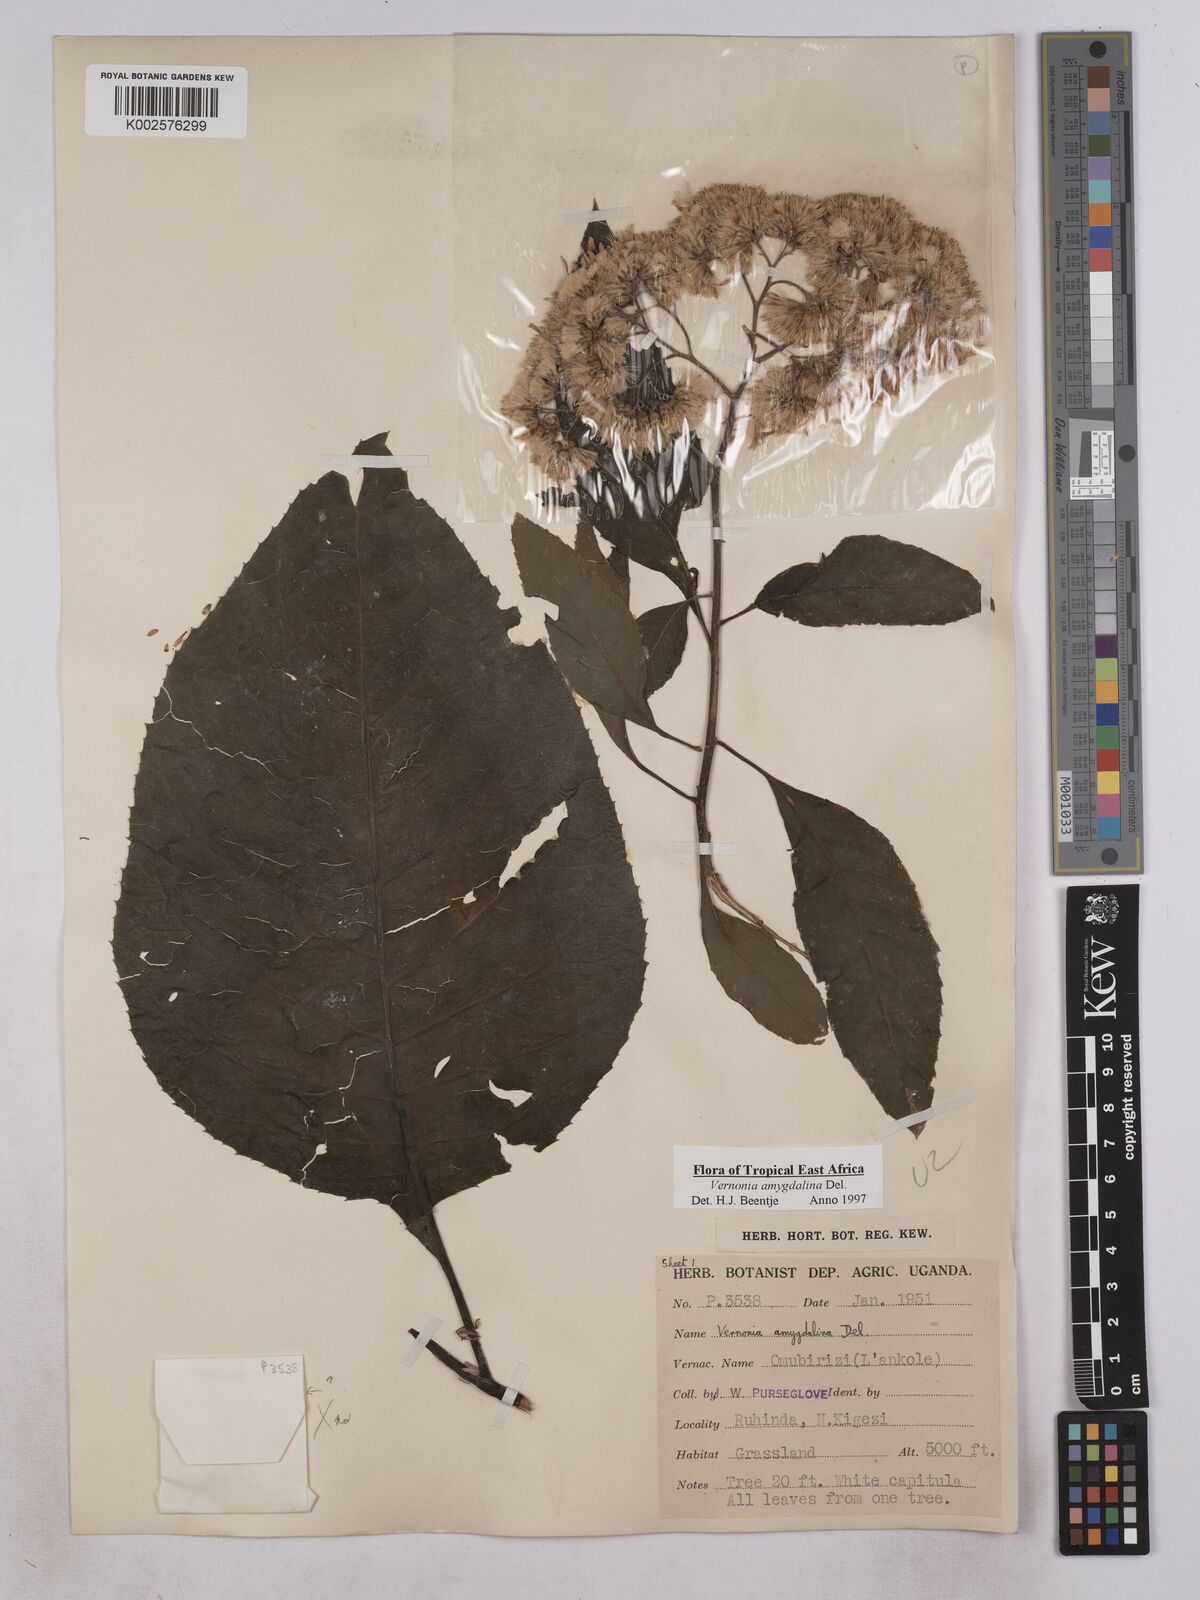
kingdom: Plantae
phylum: Tracheophyta
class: Magnoliopsida
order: Asterales
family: Asteraceae
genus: Gymnanthemum
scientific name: Gymnanthemum amygdalinum
